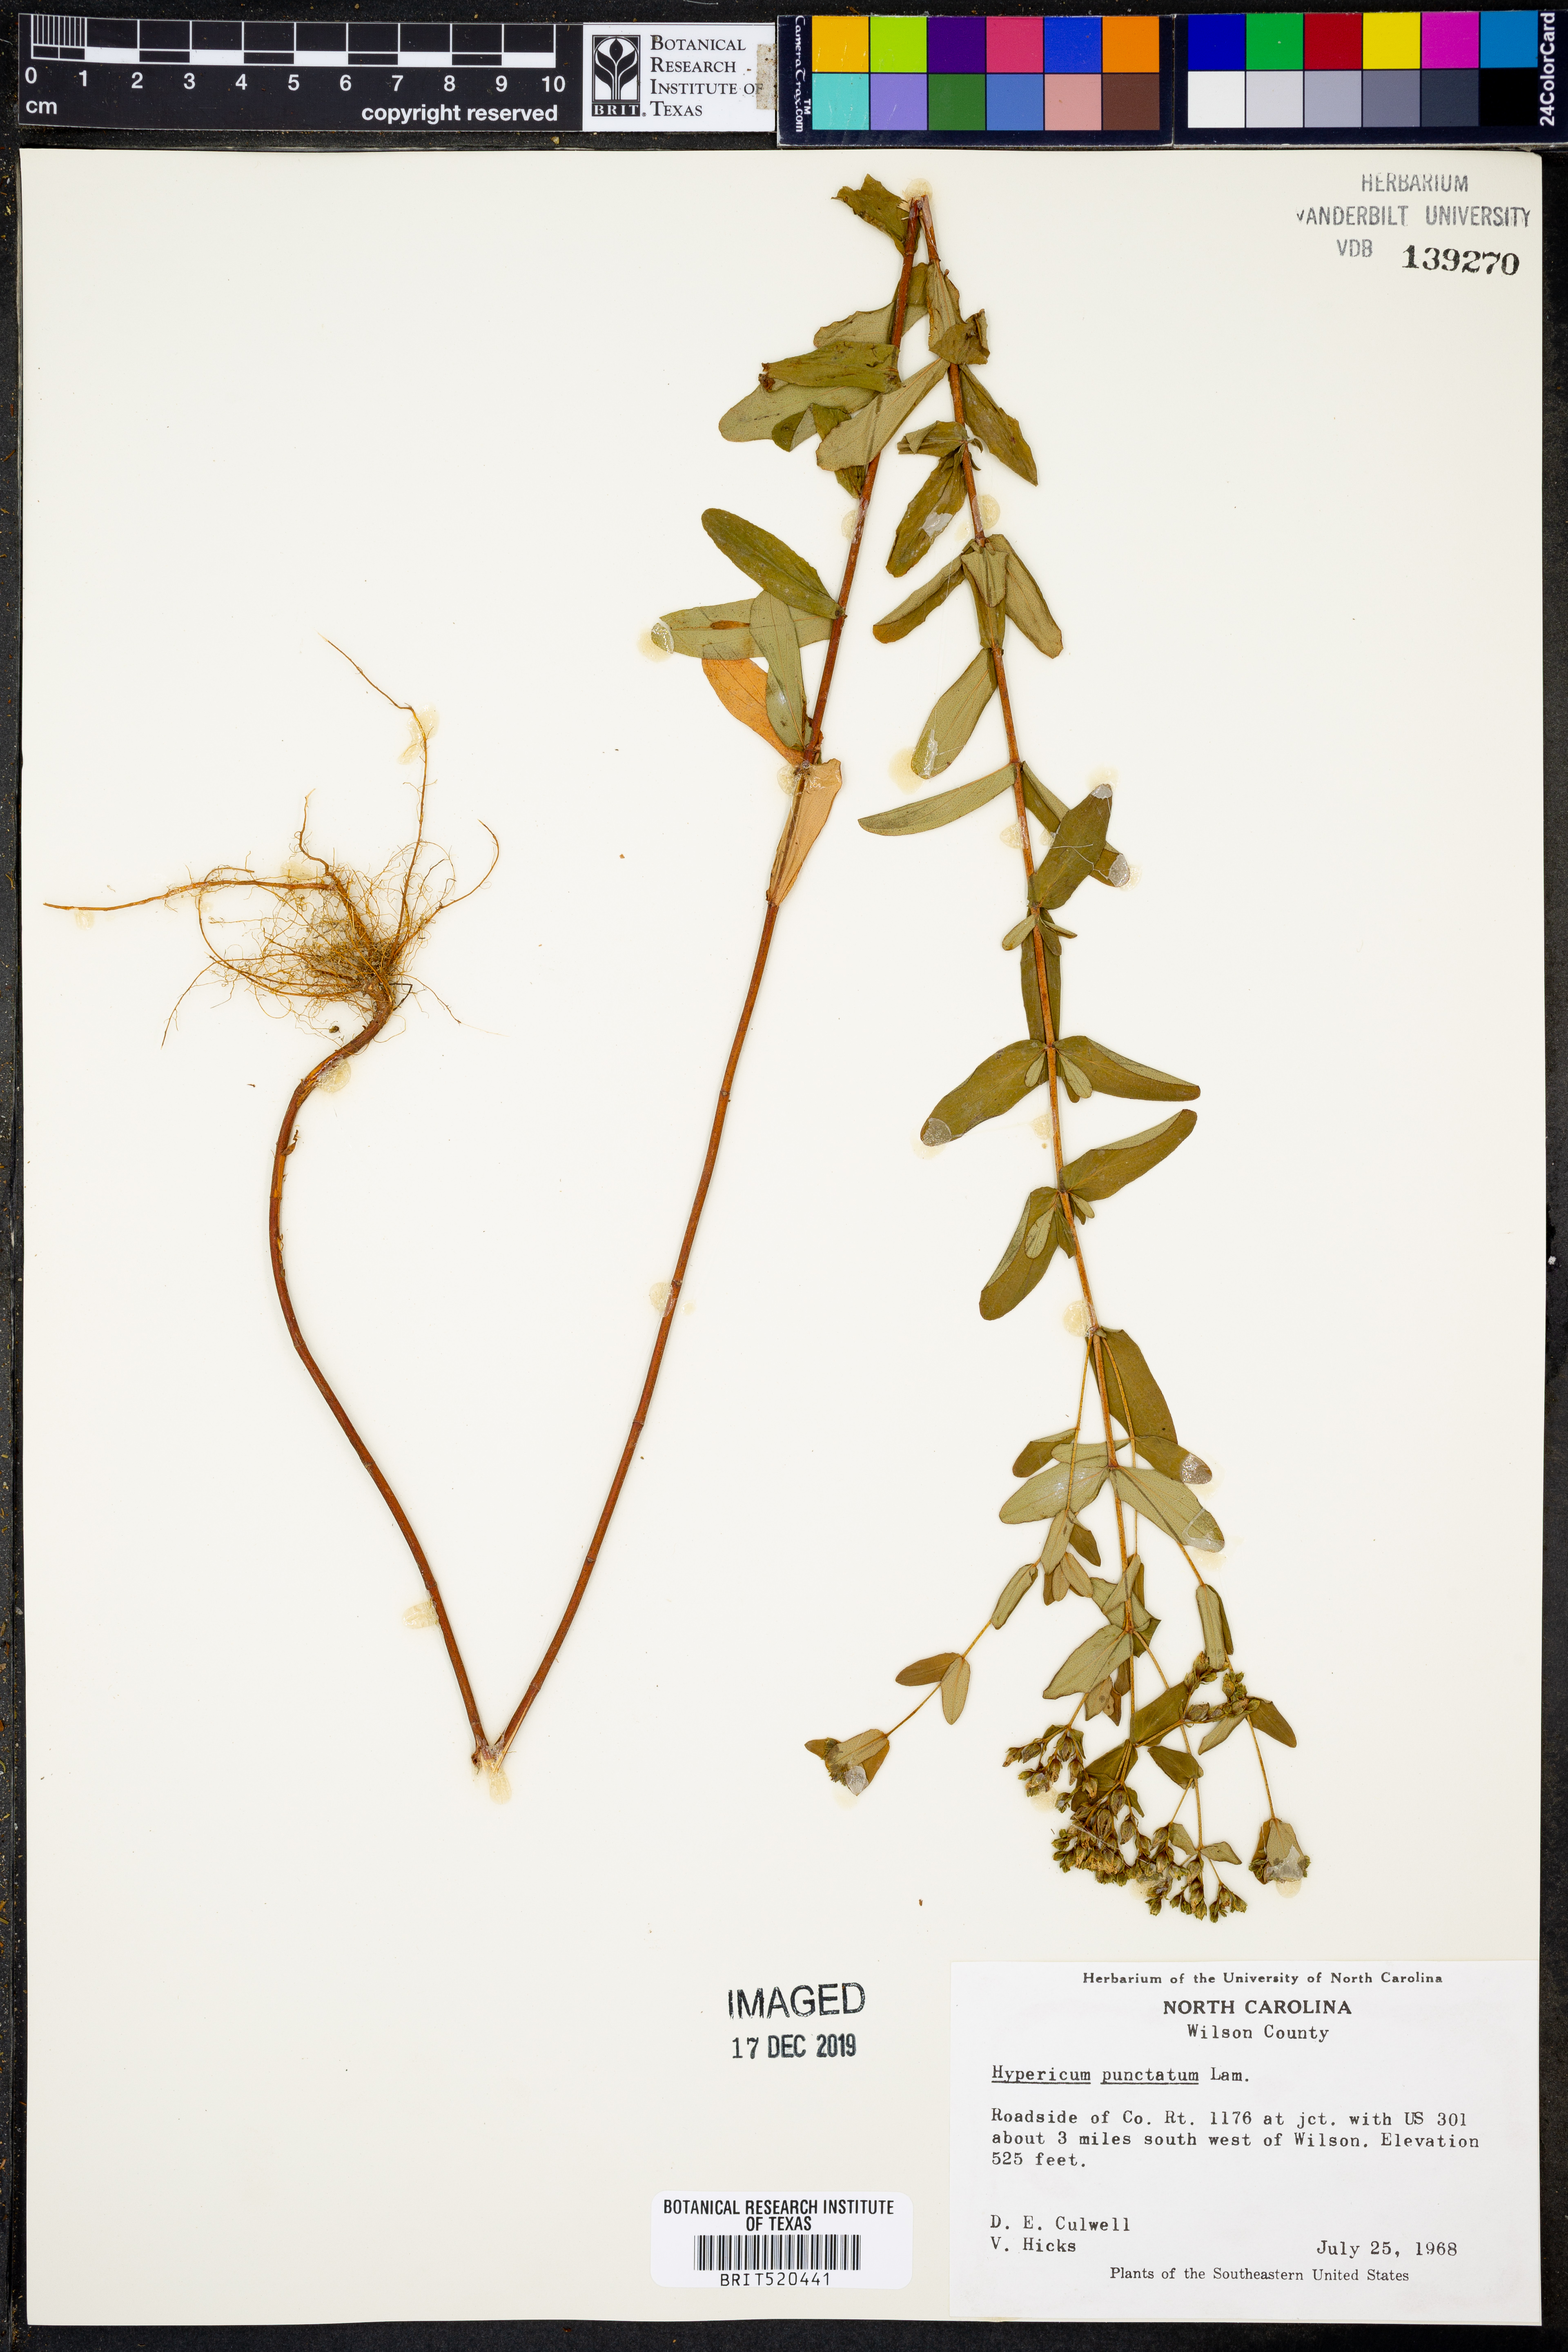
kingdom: Plantae
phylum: Tracheophyta
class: Magnoliopsida
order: Malpighiales
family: Hypericaceae
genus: Hypericum
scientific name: Hypericum punctatum
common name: Spotted st. john's-wort
